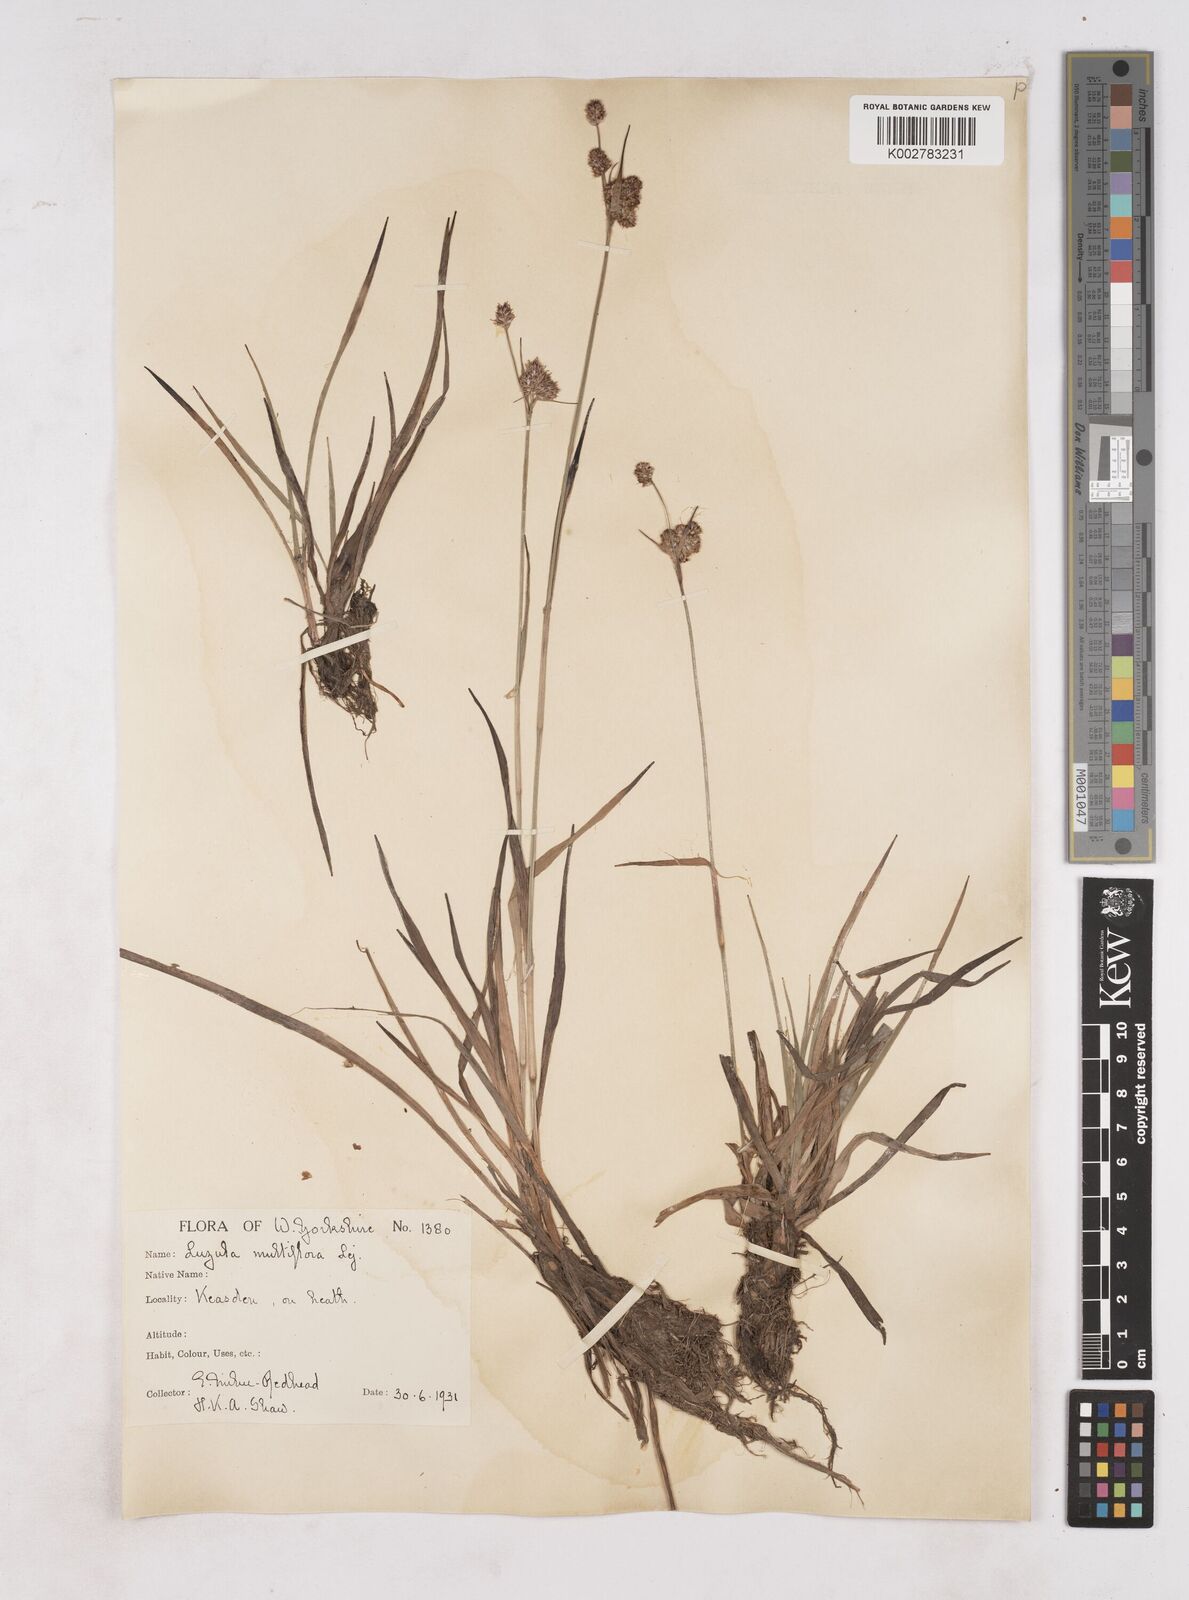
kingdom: Plantae
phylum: Tracheophyta
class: Liliopsida
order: Poales
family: Juncaceae
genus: Luzula
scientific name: Luzula multiflora
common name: Heath wood-rush
